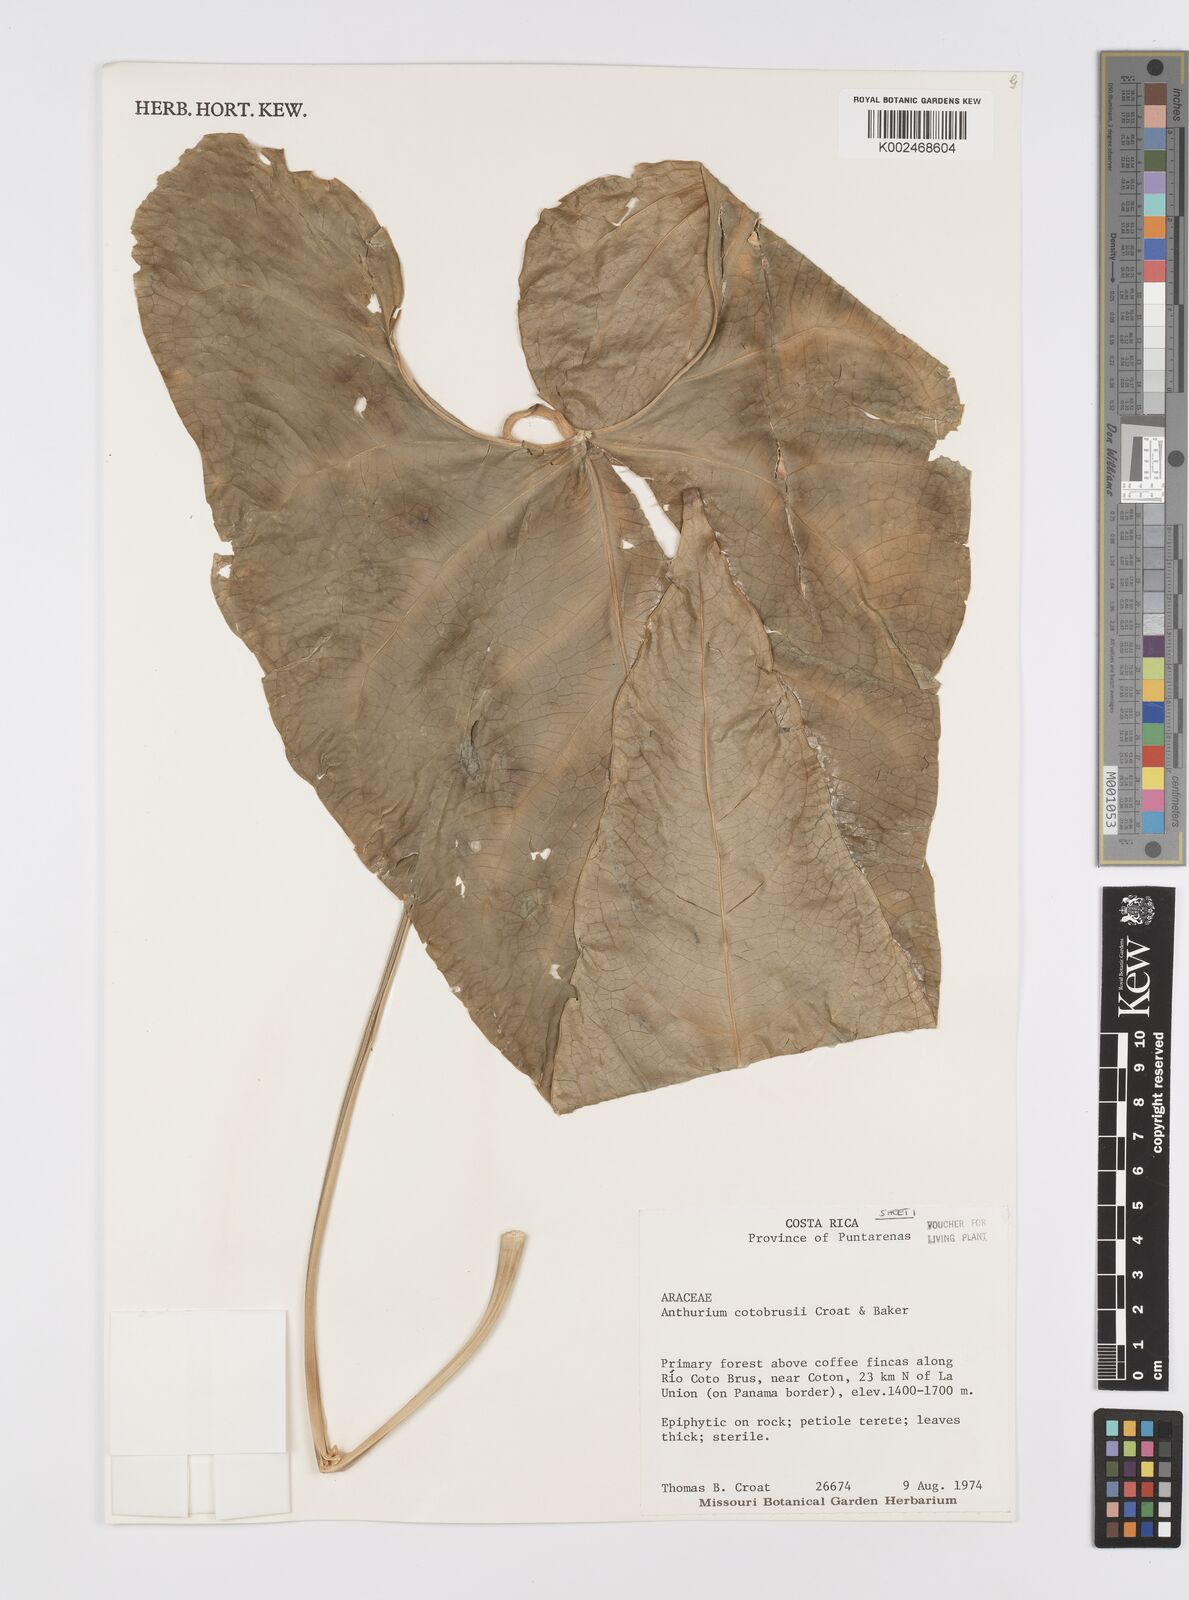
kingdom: Plantae
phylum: Tracheophyta
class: Liliopsida
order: Alismatales
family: Araceae
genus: Anthurium
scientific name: Anthurium cotobrusii
